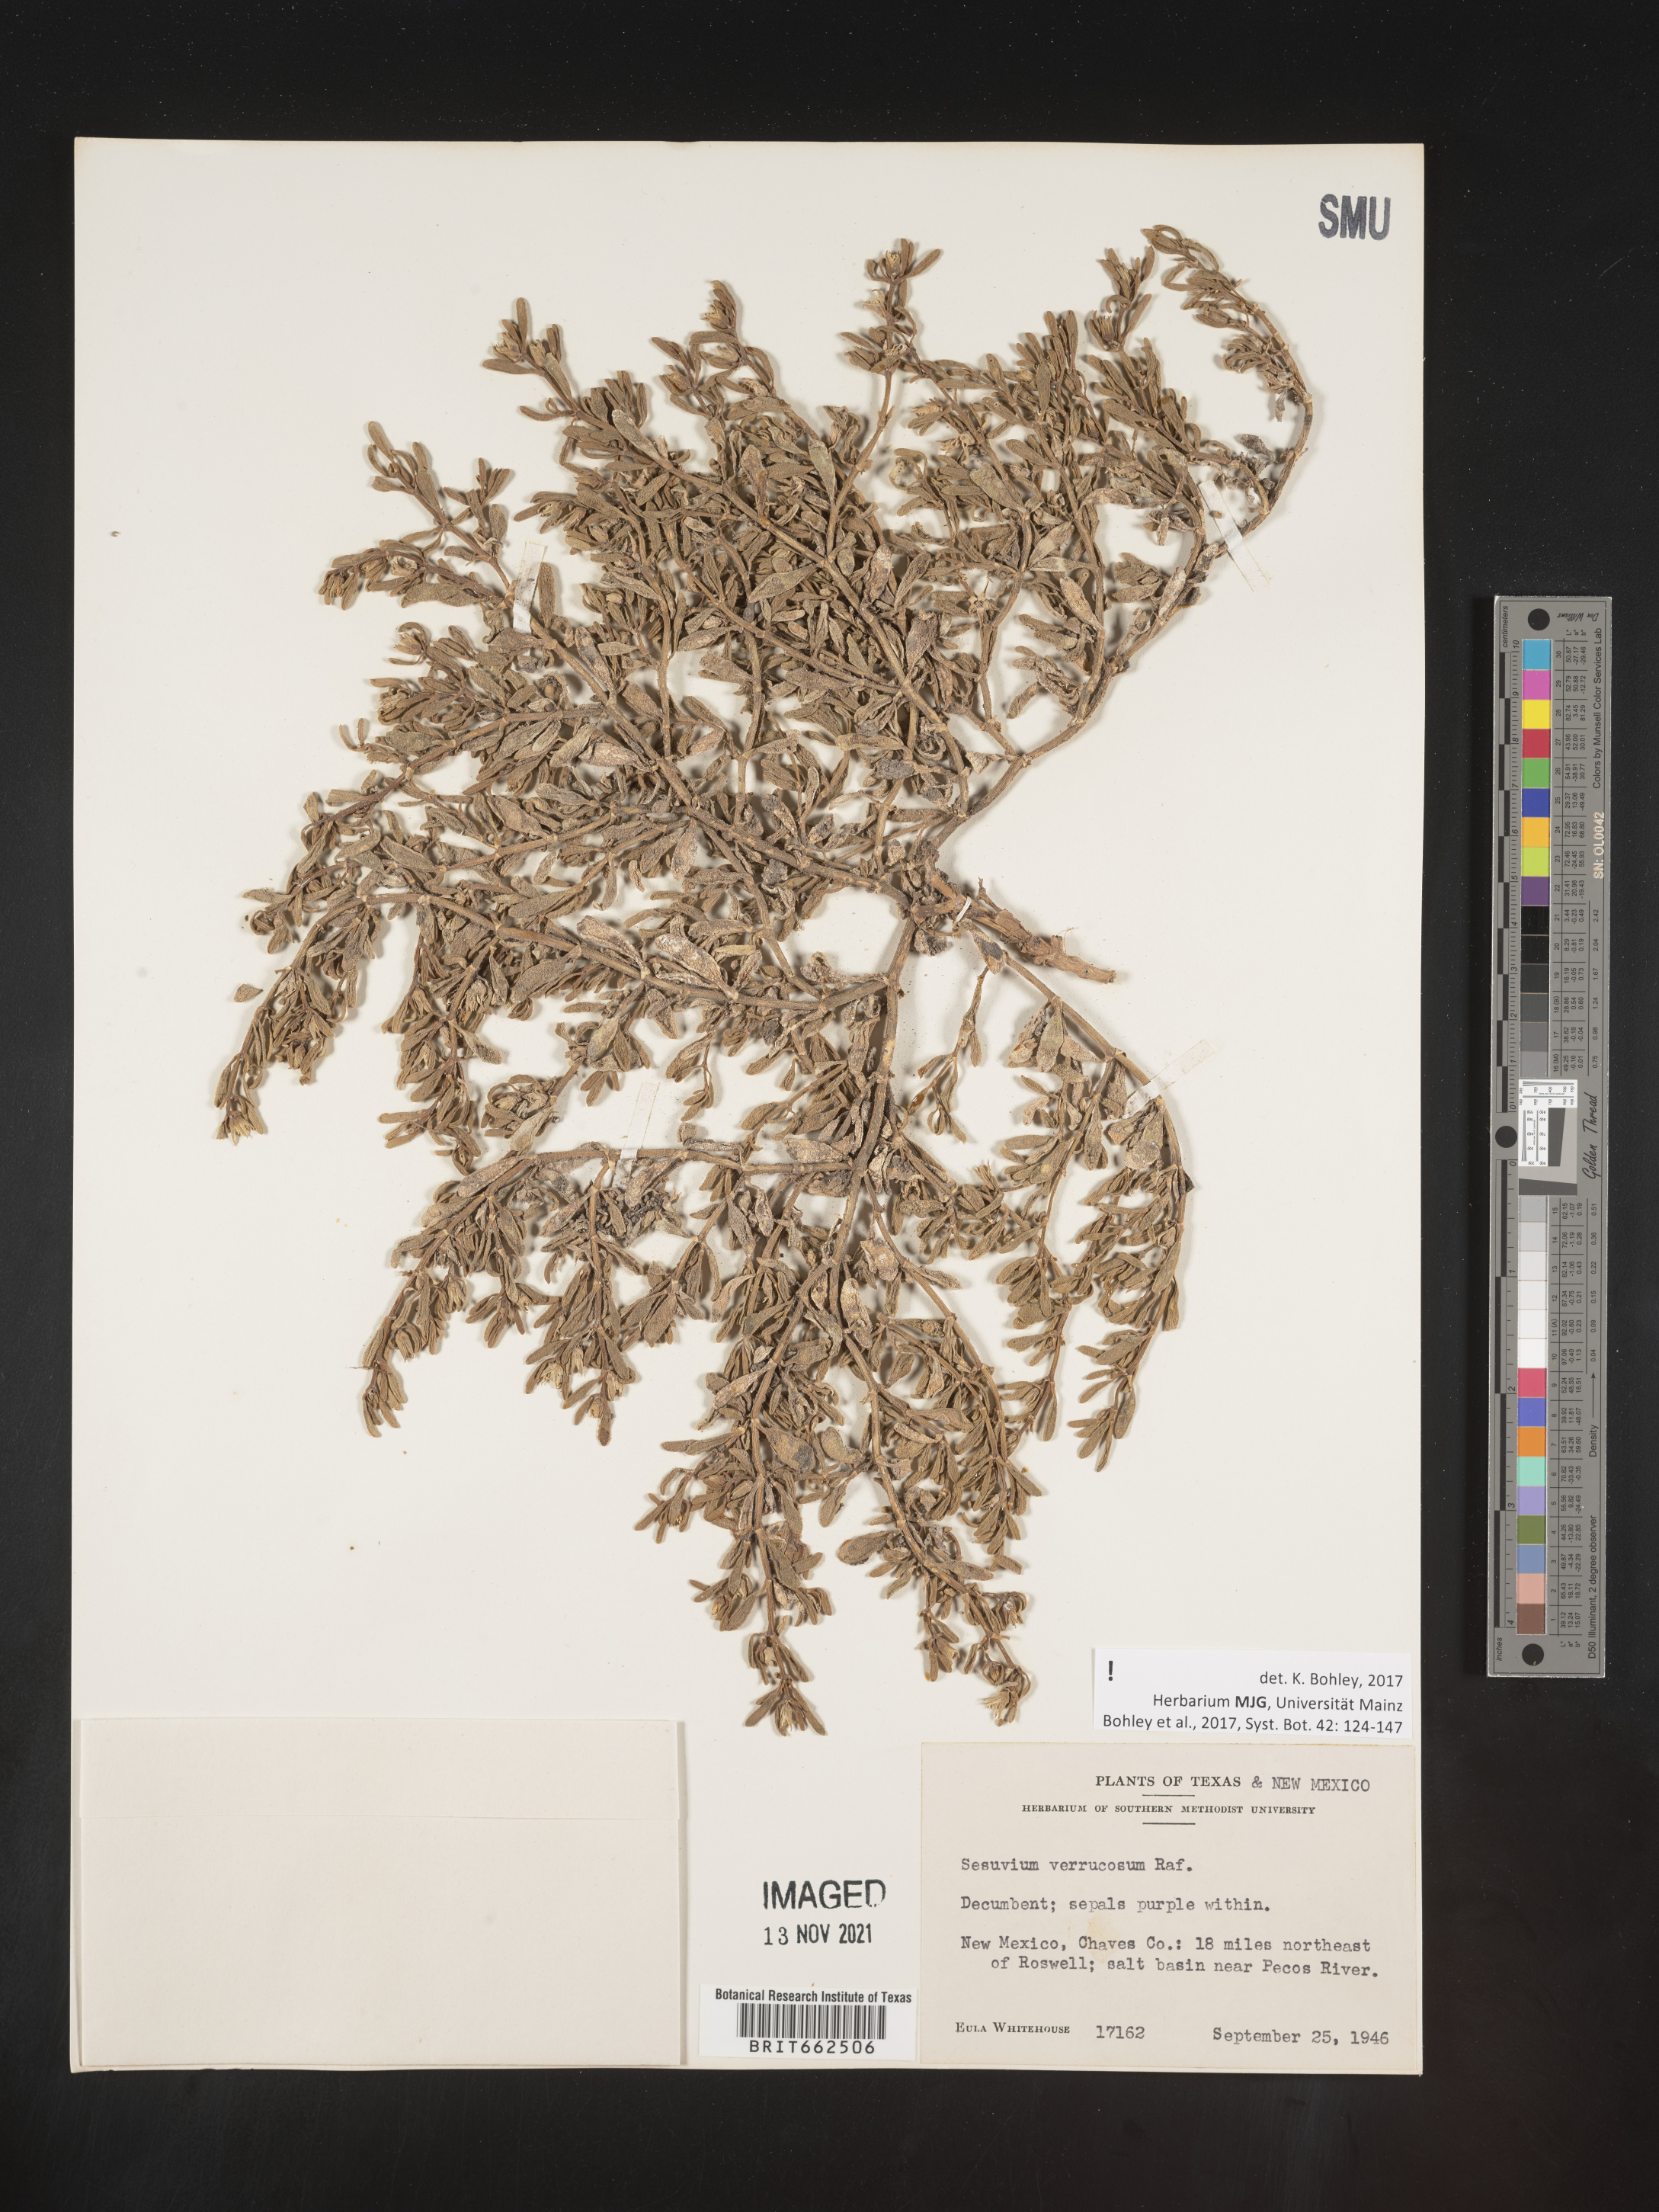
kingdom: Plantae
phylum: Tracheophyta
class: Magnoliopsida
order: Caryophyllales
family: Aizoaceae
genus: Sesuvium
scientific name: Sesuvium
